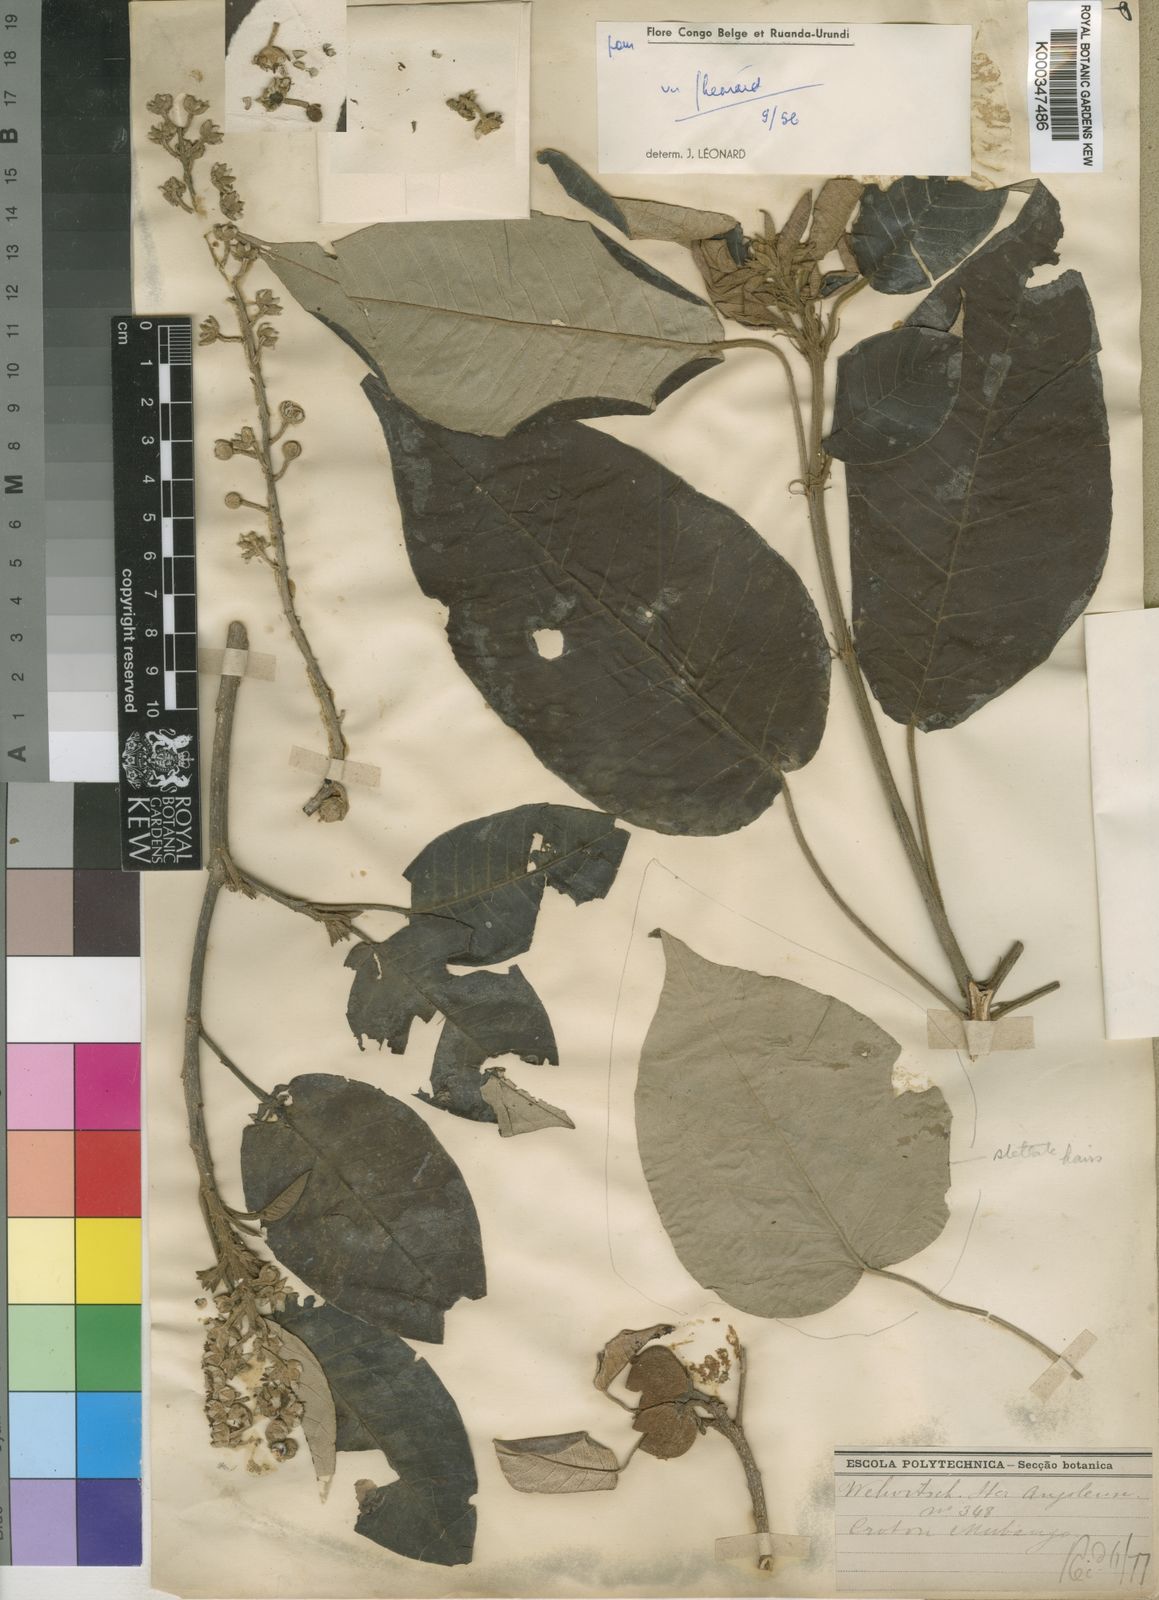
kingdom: Plantae
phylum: Tracheophyta
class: Magnoliopsida
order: Malpighiales
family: Euphorbiaceae
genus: Croton
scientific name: Croton
